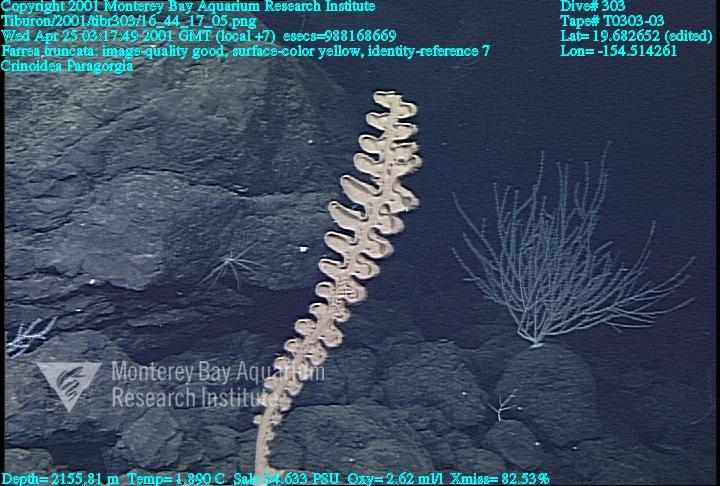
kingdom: Animalia
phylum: Porifera
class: Hexactinellida
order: Sceptrulophora
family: Farreidae
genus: Farrea
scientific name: Farrea truncata
